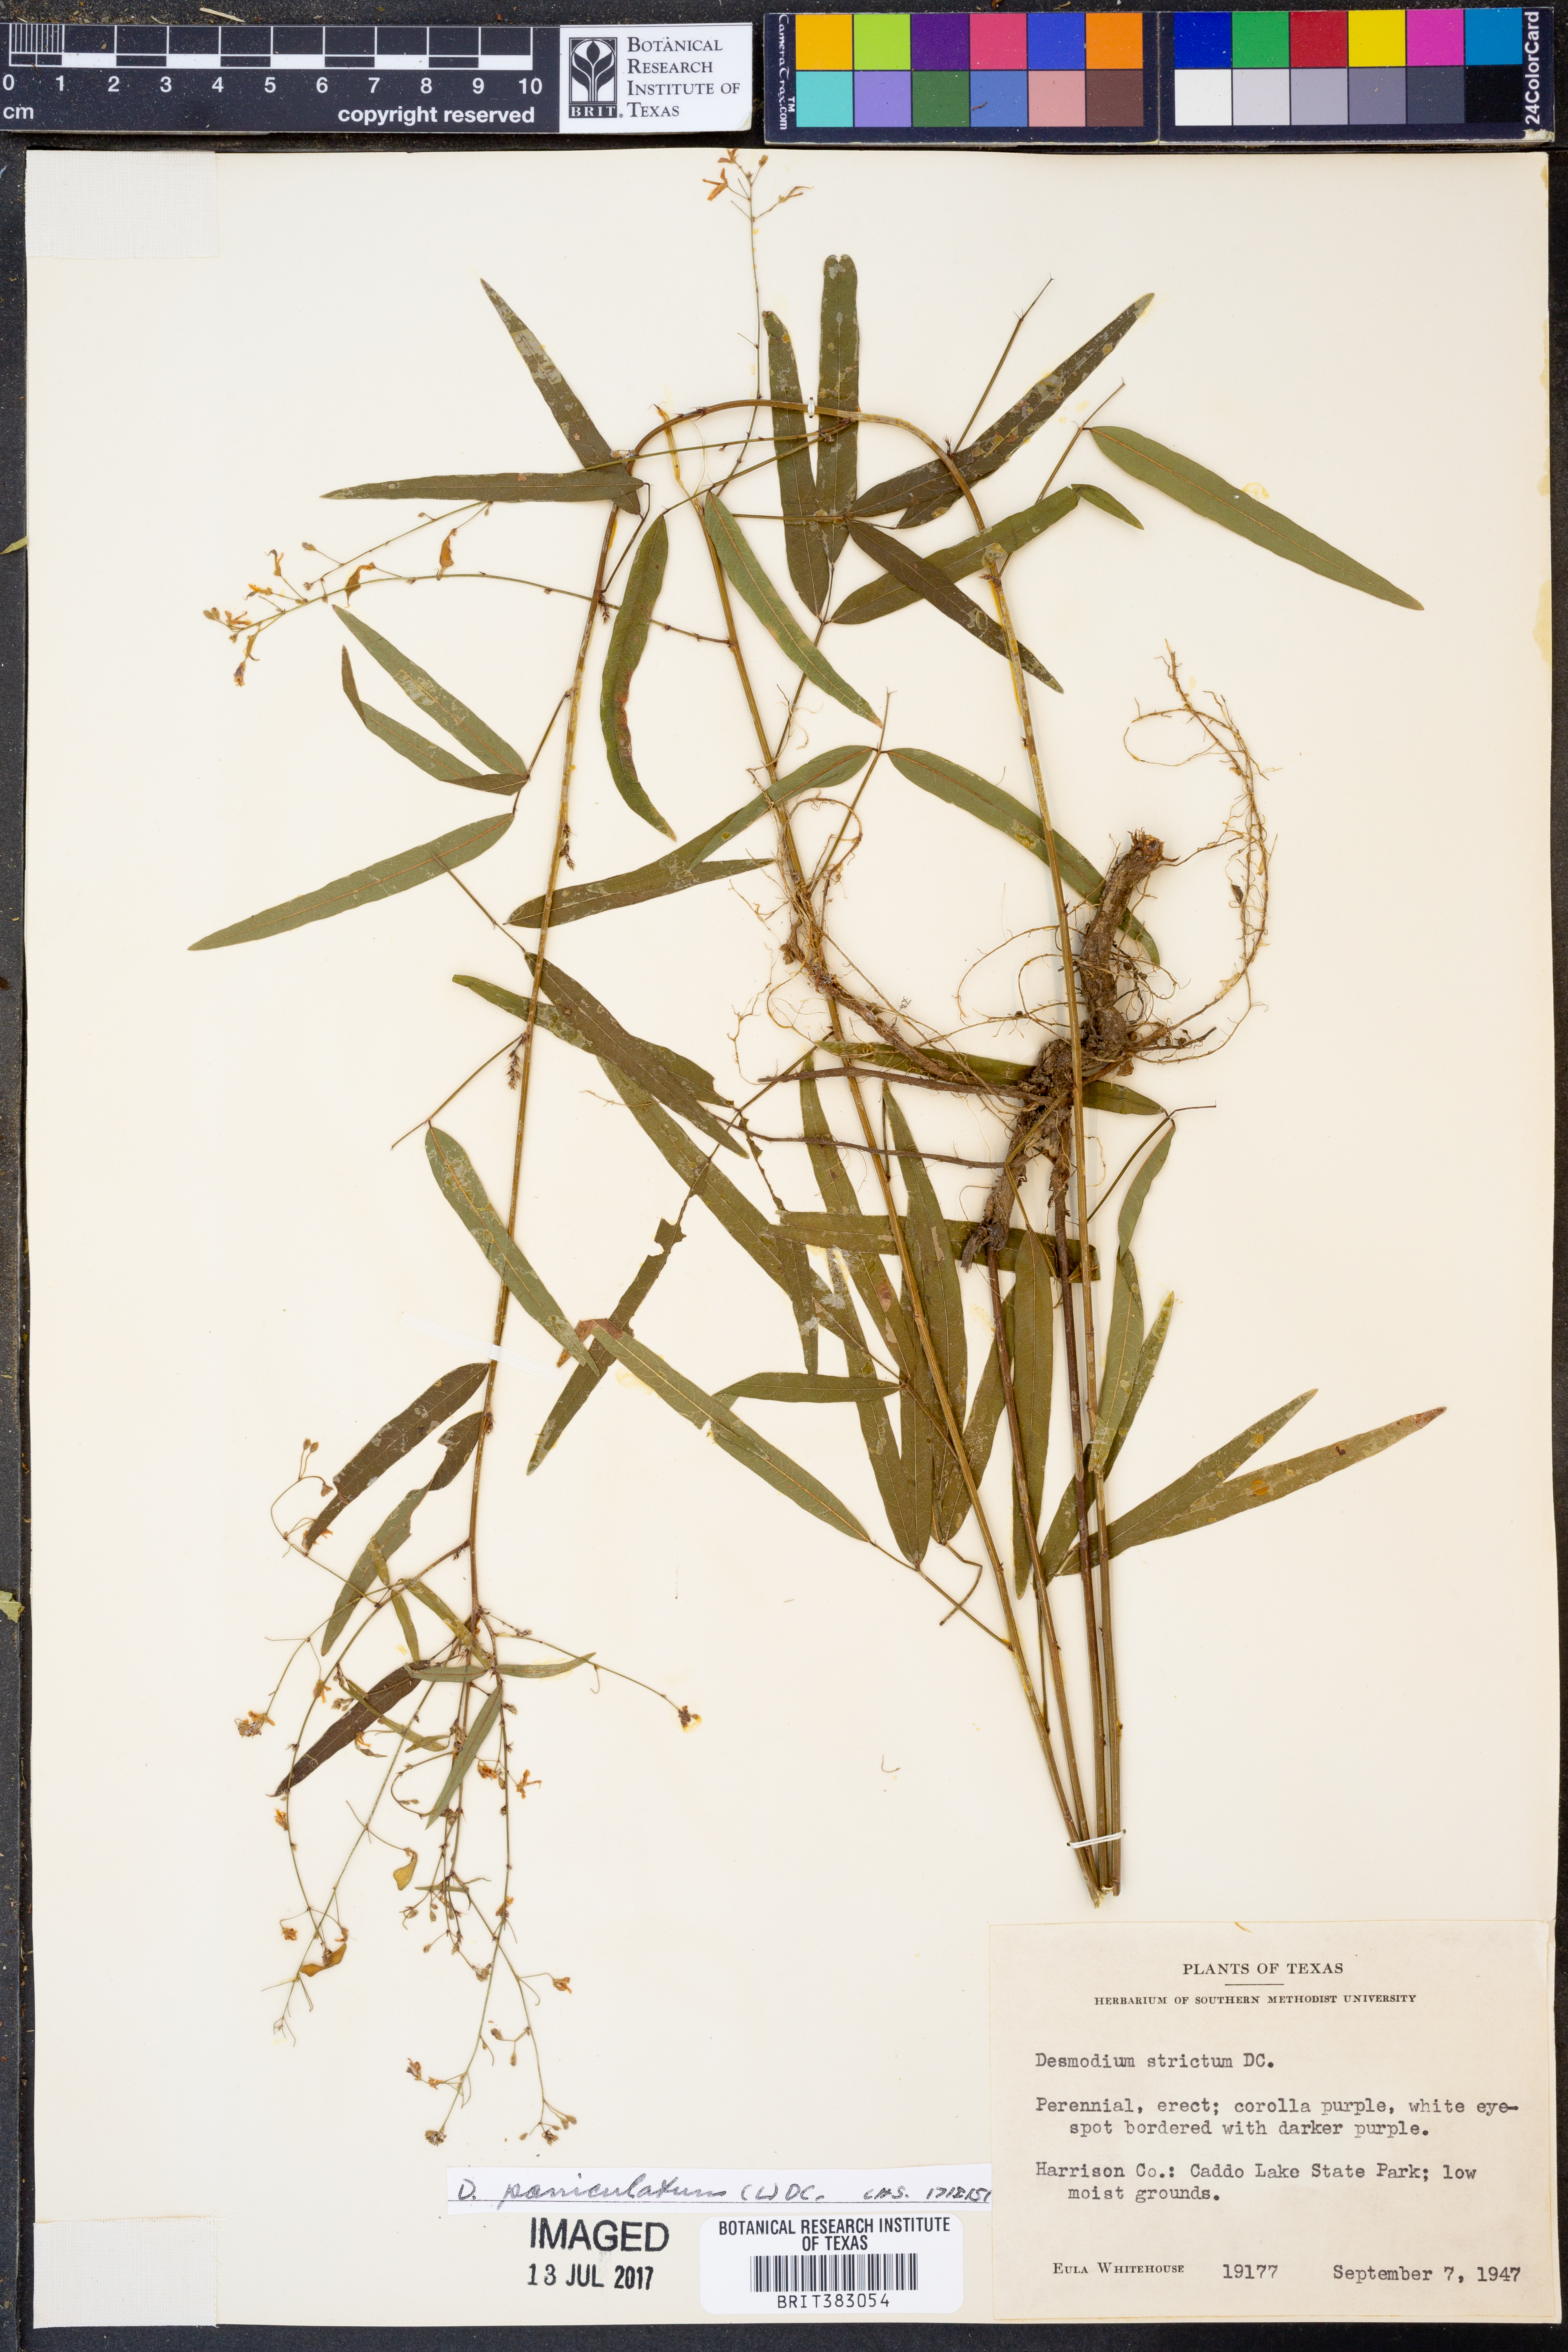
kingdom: Plantae
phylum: Tracheophyta
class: Magnoliopsida
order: Fabales
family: Fabaceae
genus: Desmodium
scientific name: Desmodium paniculatum
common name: Panicled tick-clover
